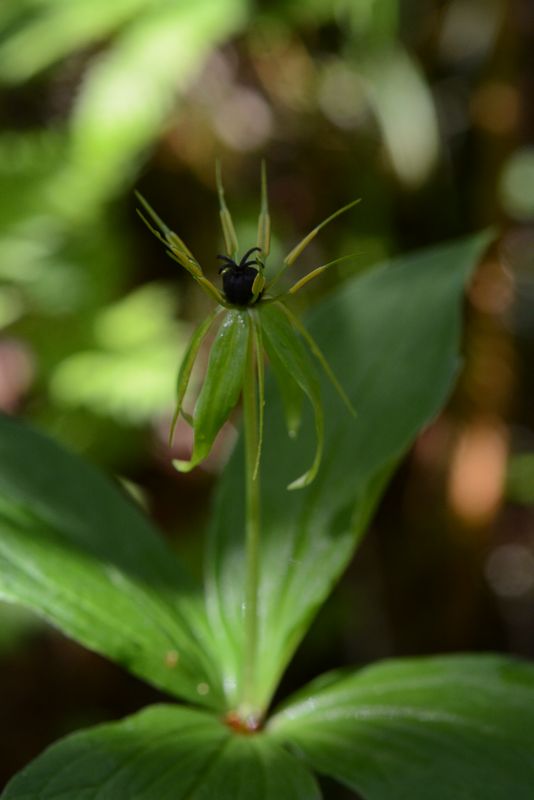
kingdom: Plantae
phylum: Tracheophyta
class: Liliopsida
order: Liliales
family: Melanthiaceae
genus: Paris
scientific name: Paris quadrifolia
